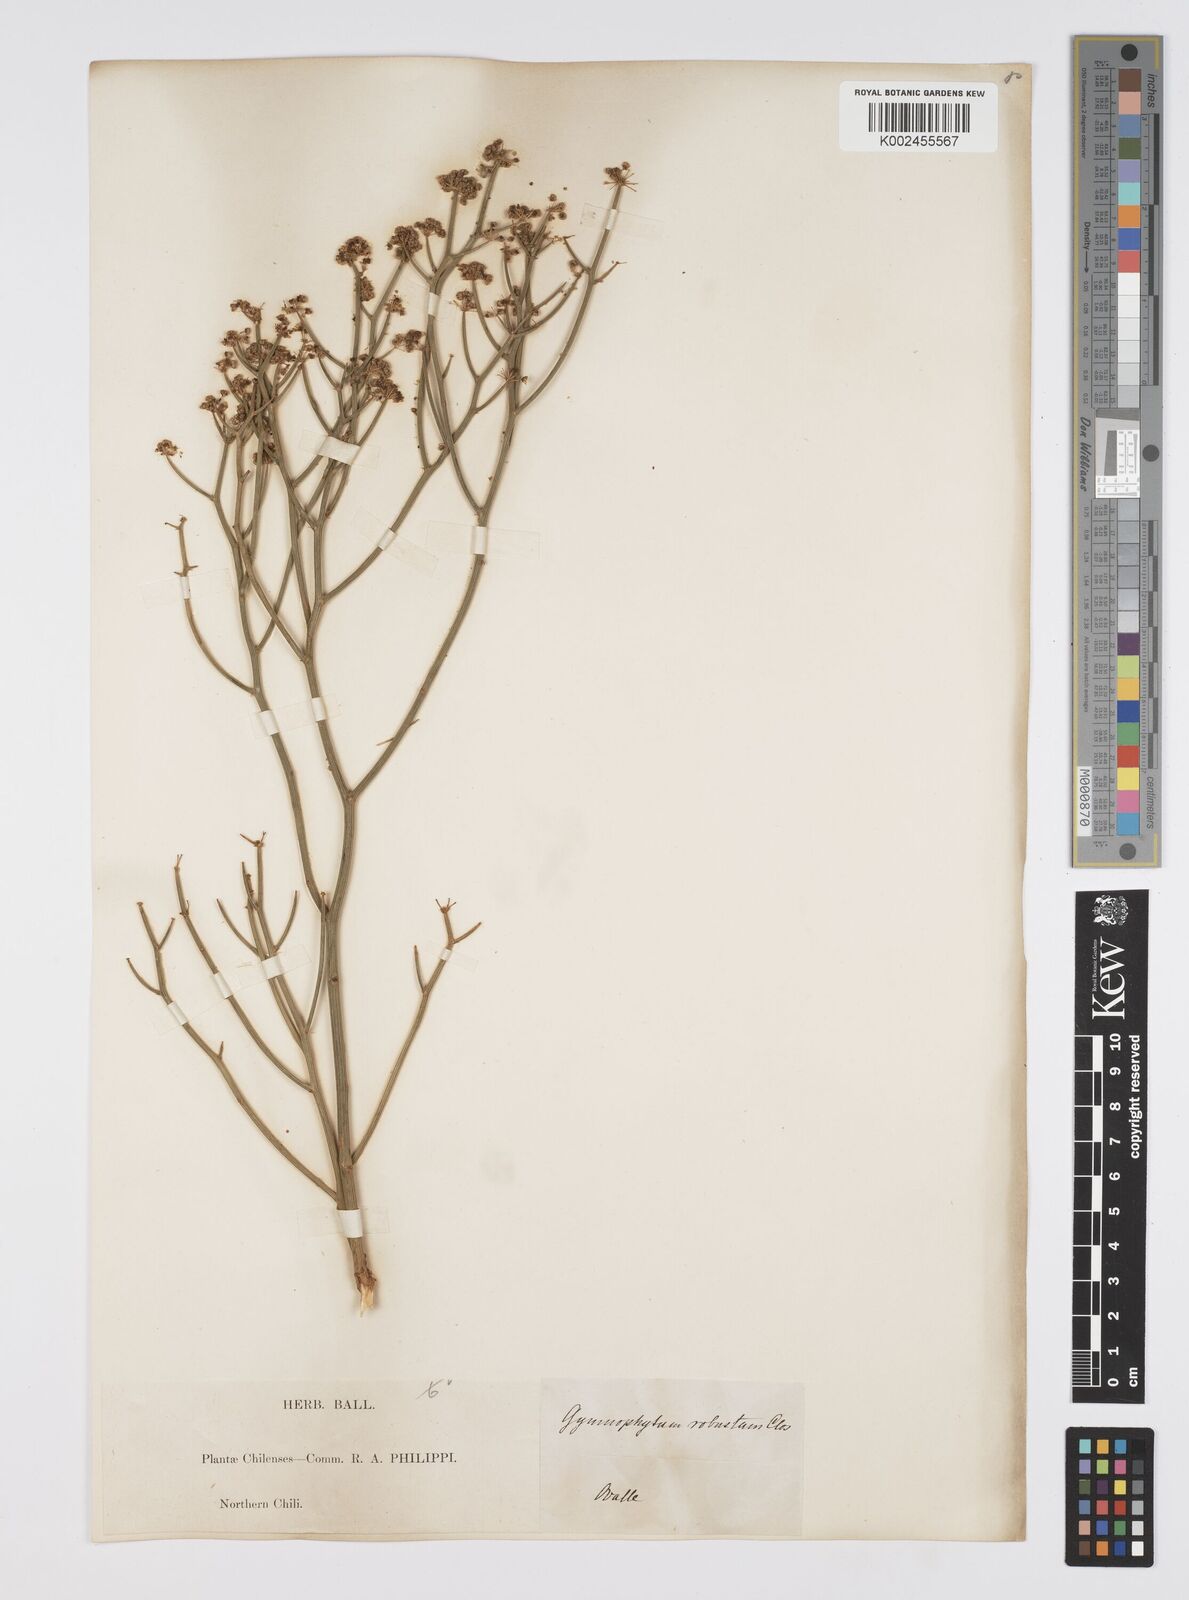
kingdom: Plantae
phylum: Tracheophyta
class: Magnoliopsida
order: Apiales
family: Apiaceae
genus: Gymnophyton
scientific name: Gymnophyton robustum
